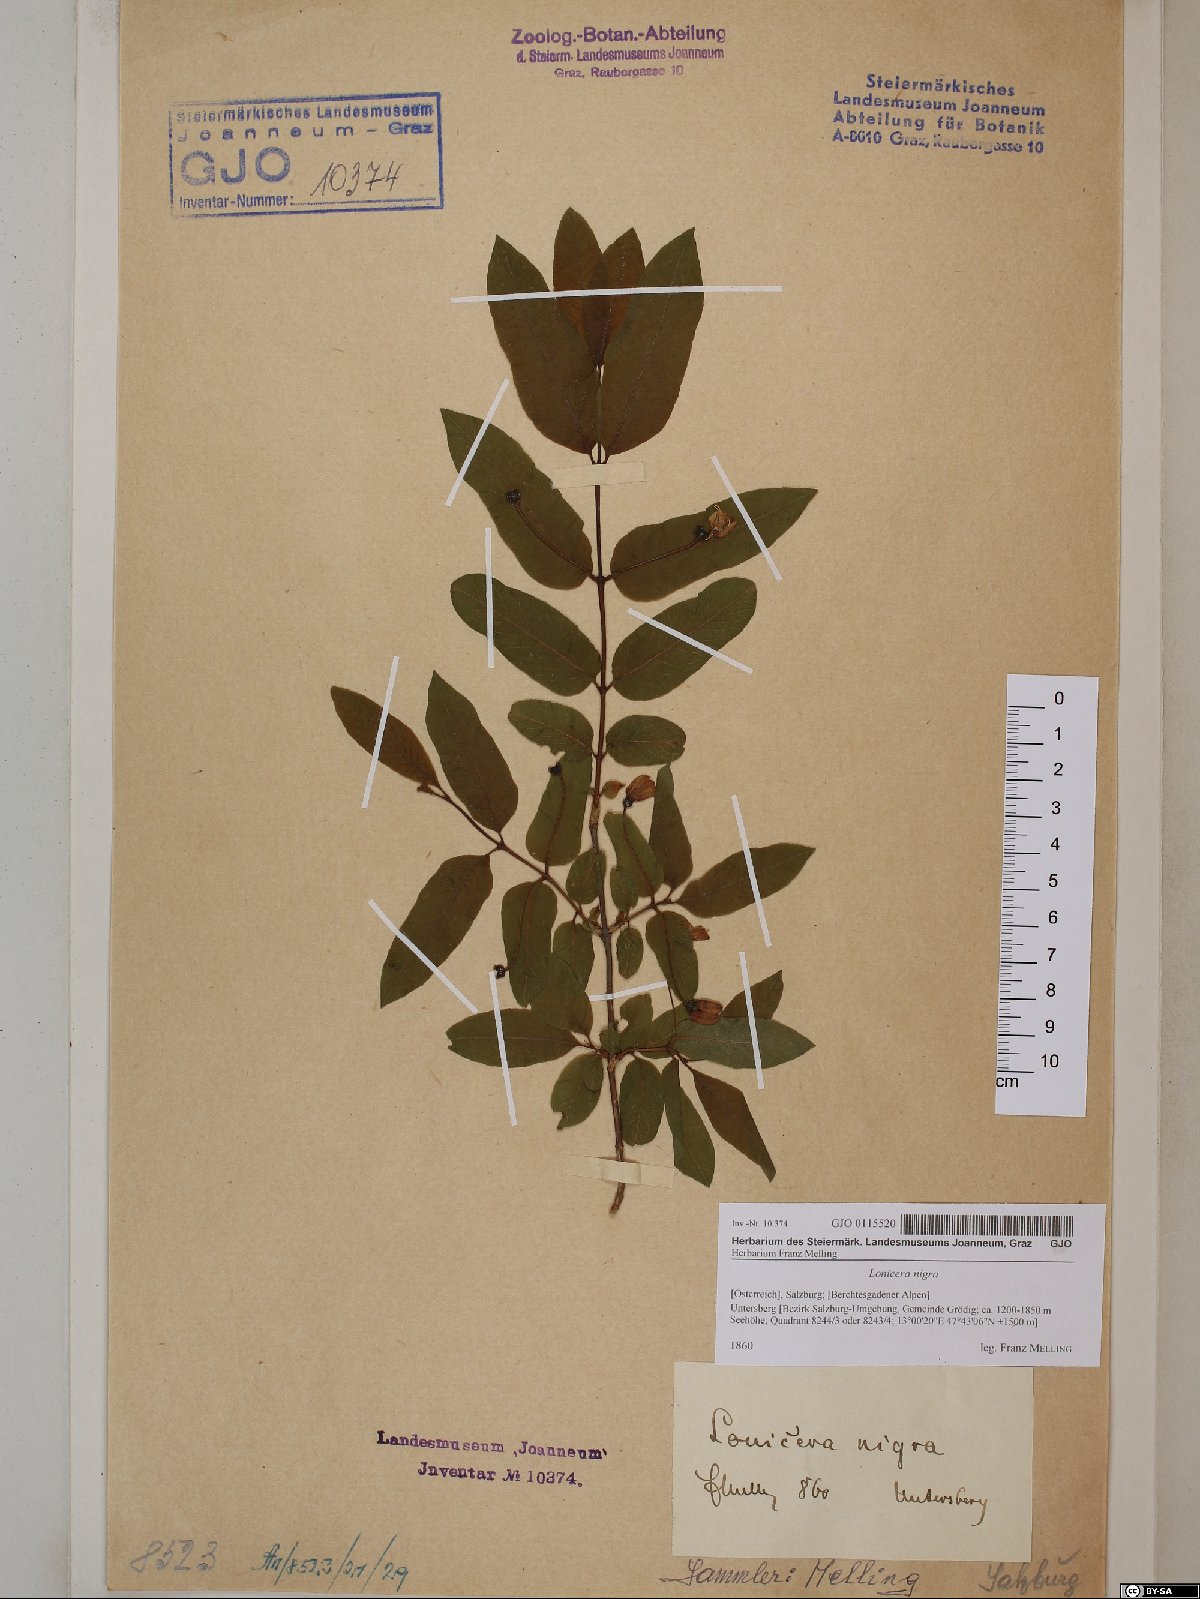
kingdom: Plantae
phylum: Tracheophyta
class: Magnoliopsida
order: Dipsacales
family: Caprifoliaceae
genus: Lonicera
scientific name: Lonicera nigra
